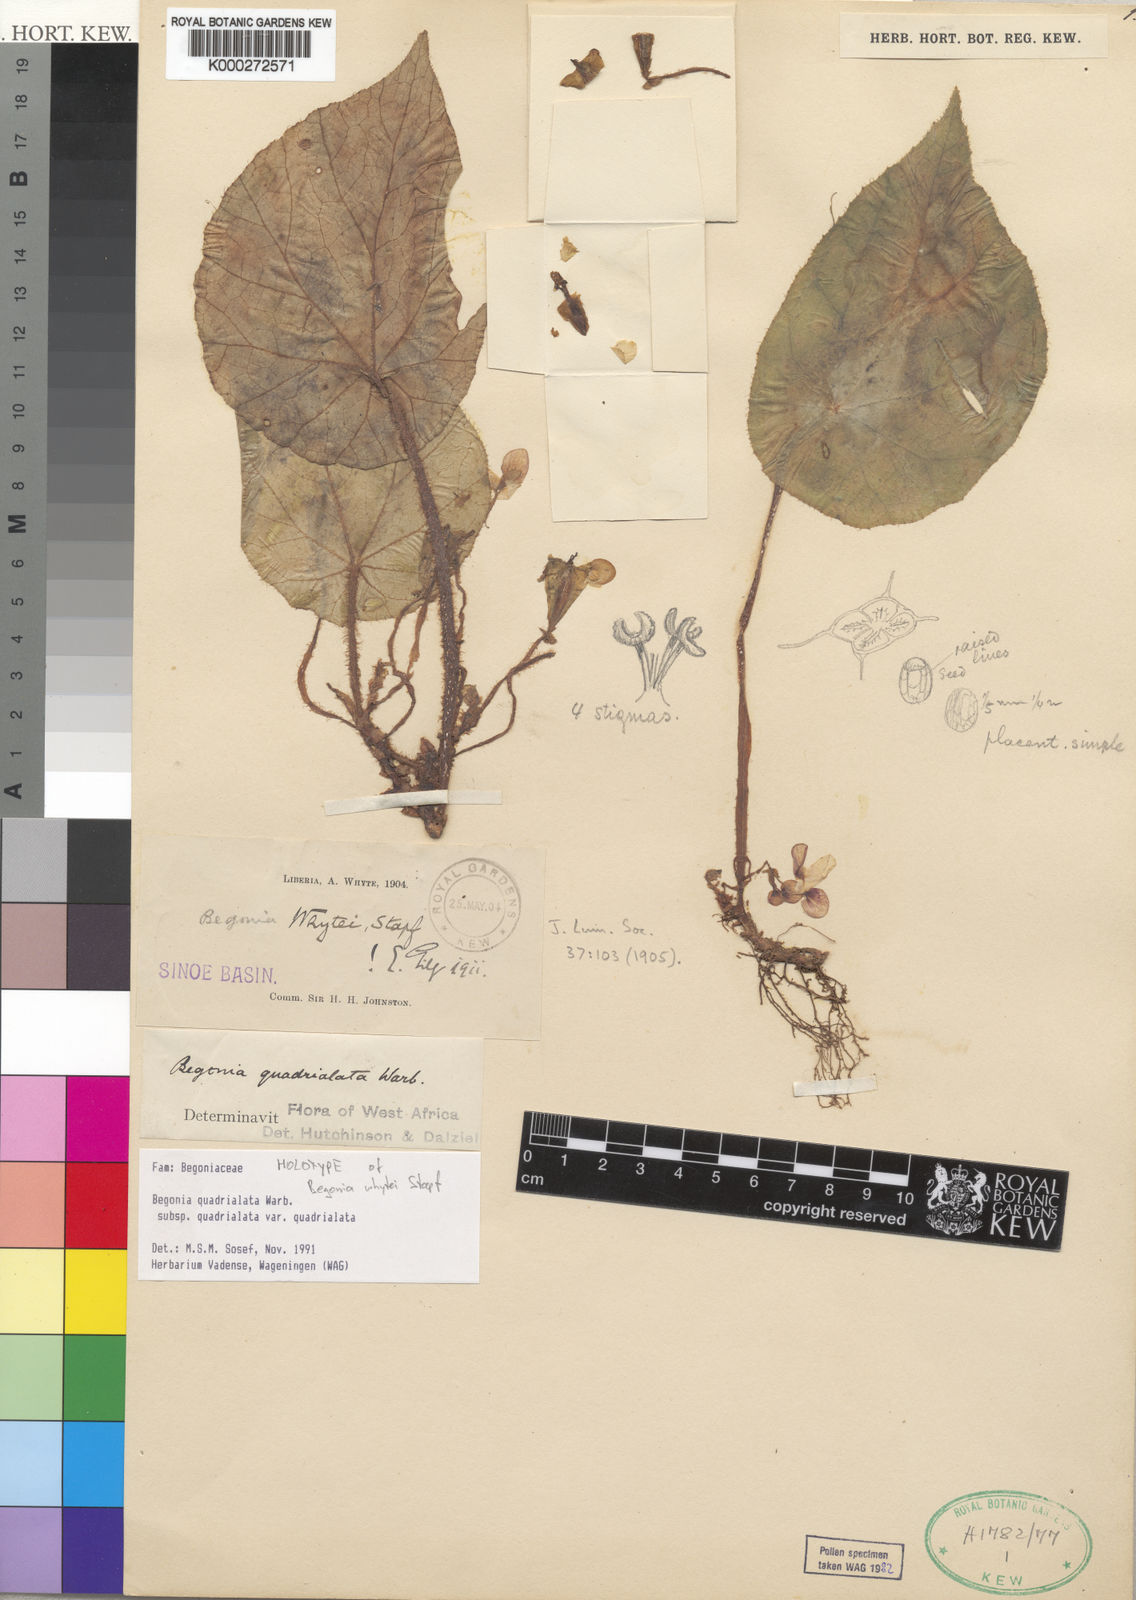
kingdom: Plantae
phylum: Tracheophyta
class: Magnoliopsida
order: Cucurbitales
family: Begoniaceae
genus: Begonia
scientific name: Begonia quadrialata
